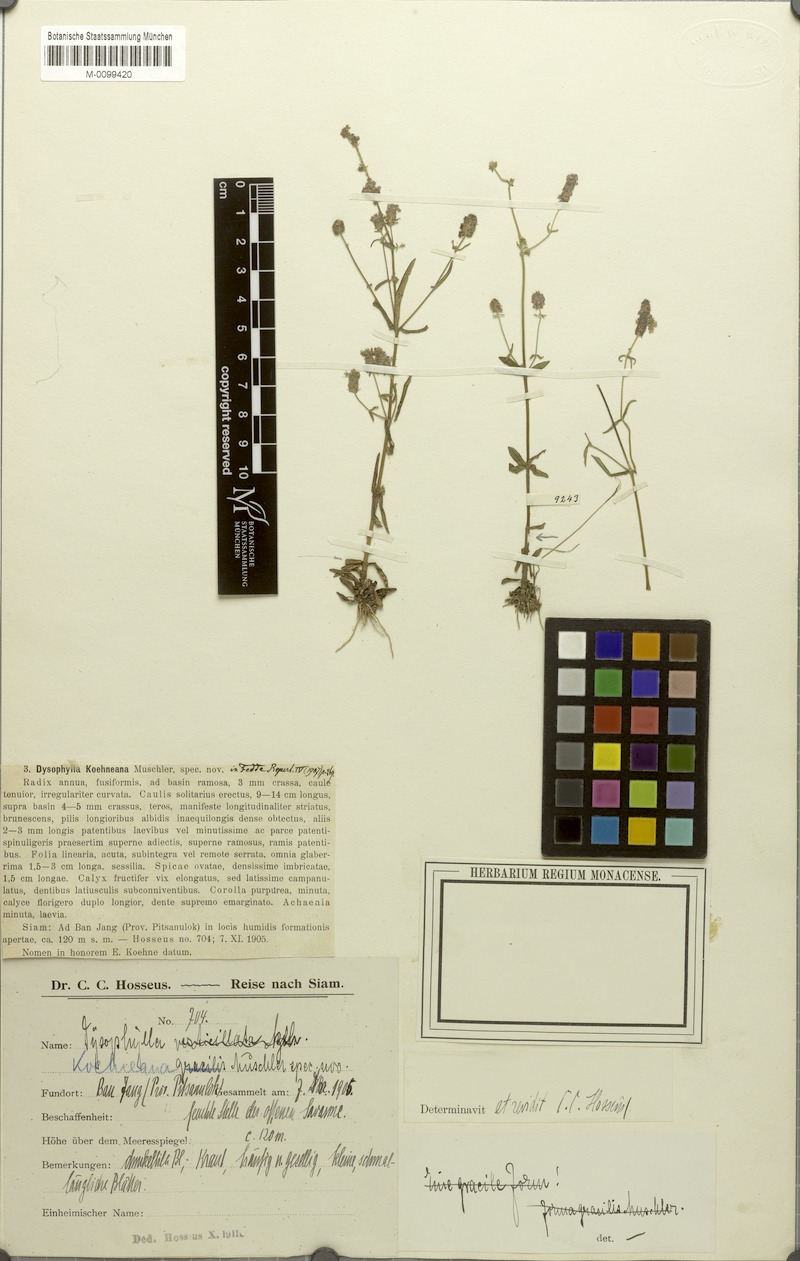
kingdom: Plantae
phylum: Tracheophyta
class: Magnoliopsida
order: Lamiales
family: Lamiaceae
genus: Pogostemon
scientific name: Pogostemon koehneanus
